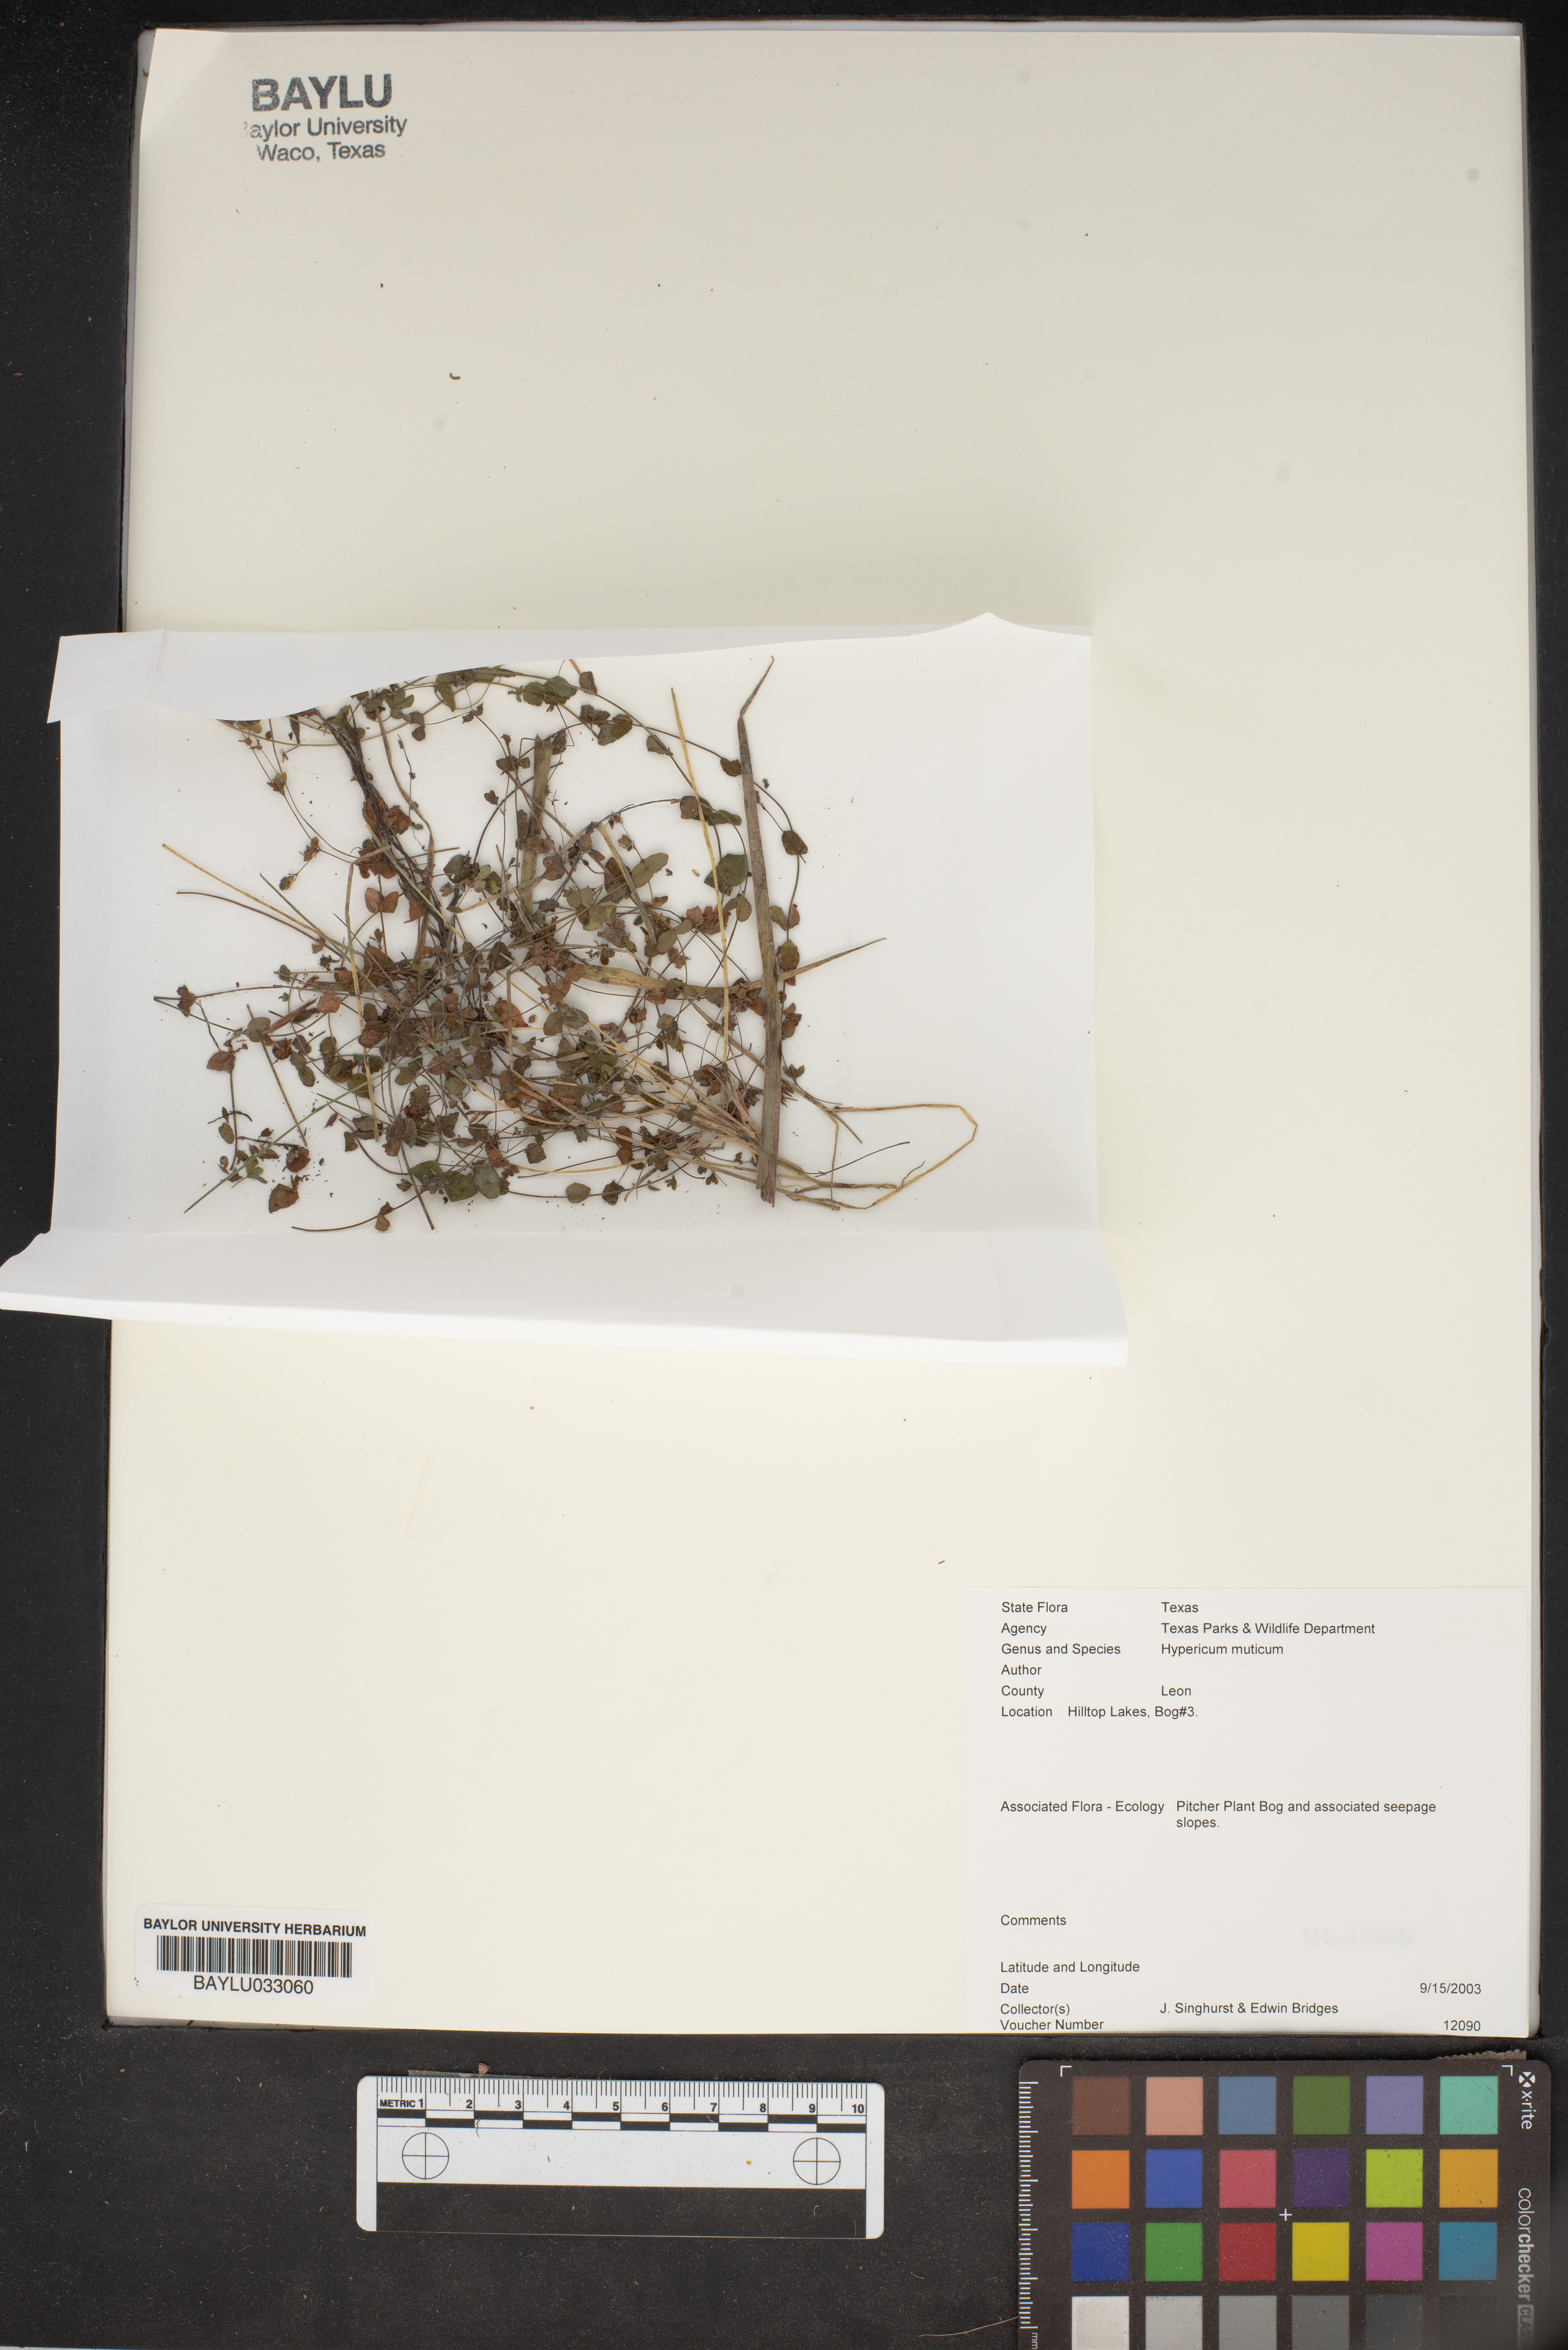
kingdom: Plantae
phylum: Tracheophyta
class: Magnoliopsida
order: Malpighiales
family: Hypericaceae
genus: Hypericum
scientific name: Hypericum mutilum
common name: Dwarf st. john's-wort
